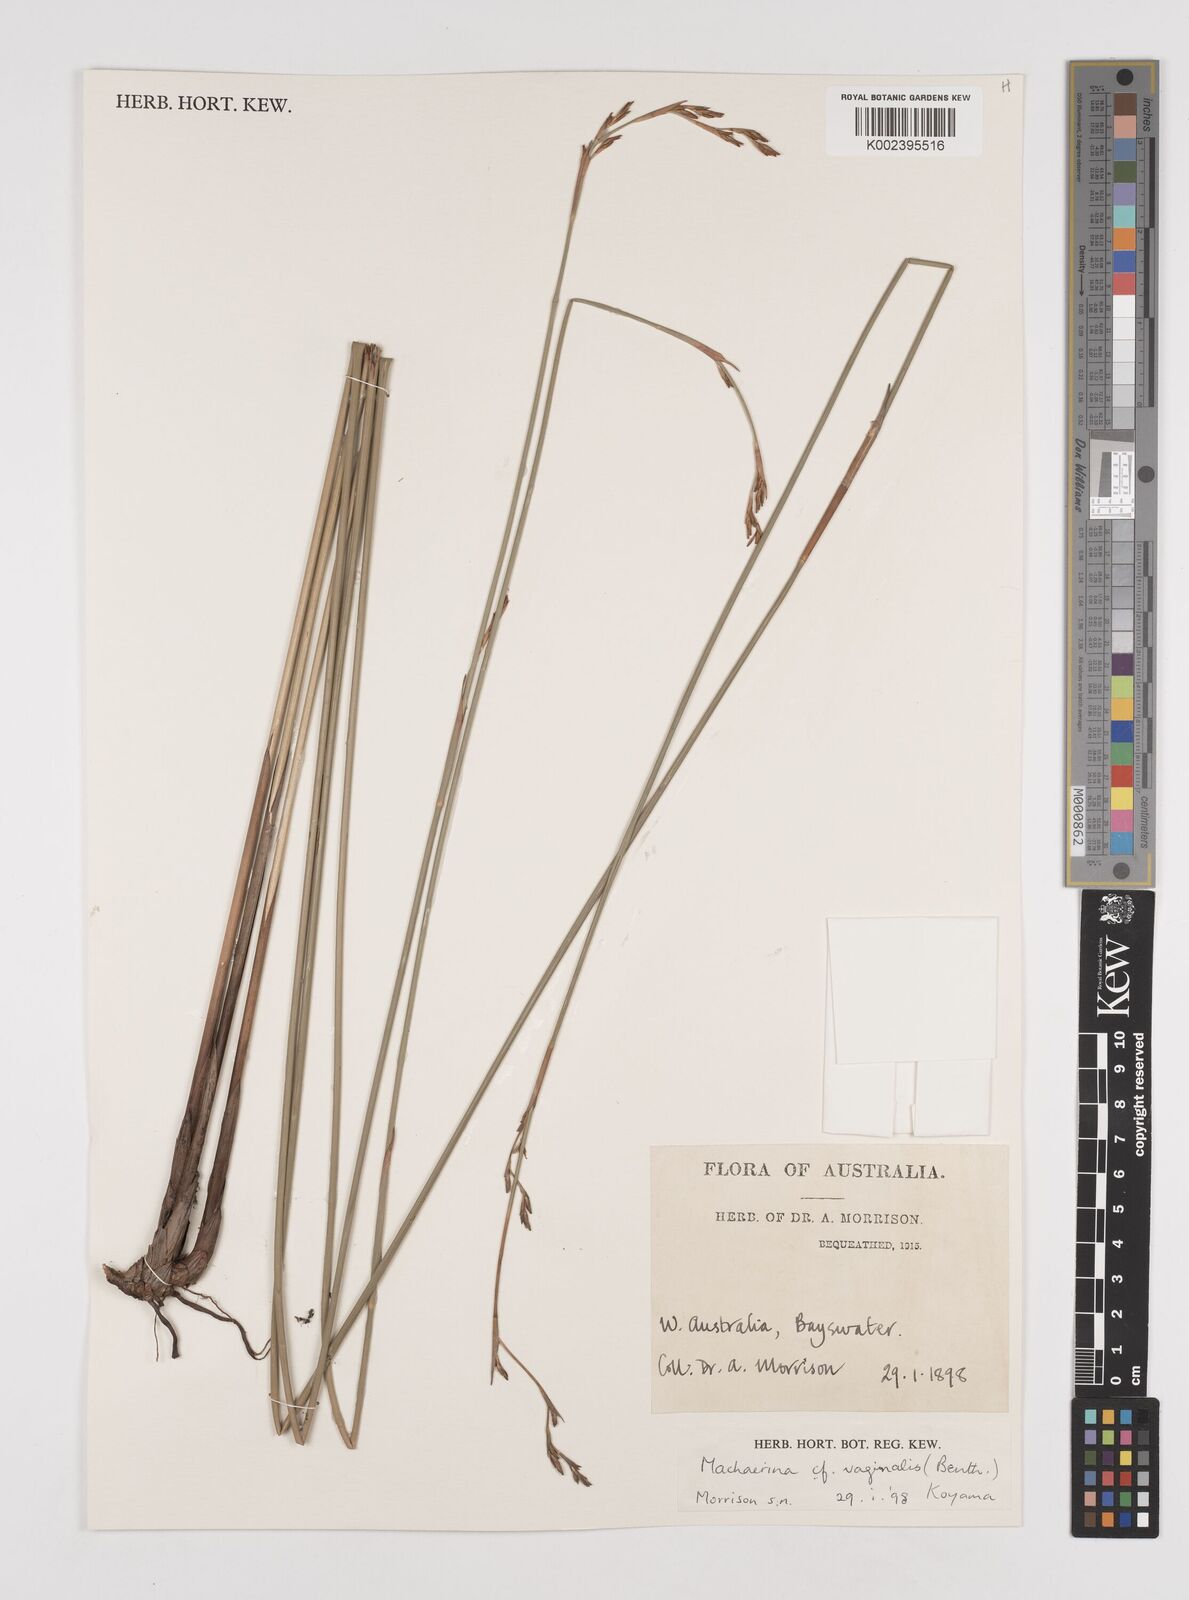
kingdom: Plantae
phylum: Tracheophyta
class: Liliopsida
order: Poales
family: Cyperaceae
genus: Machaerina
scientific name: Machaerina vaginalis
